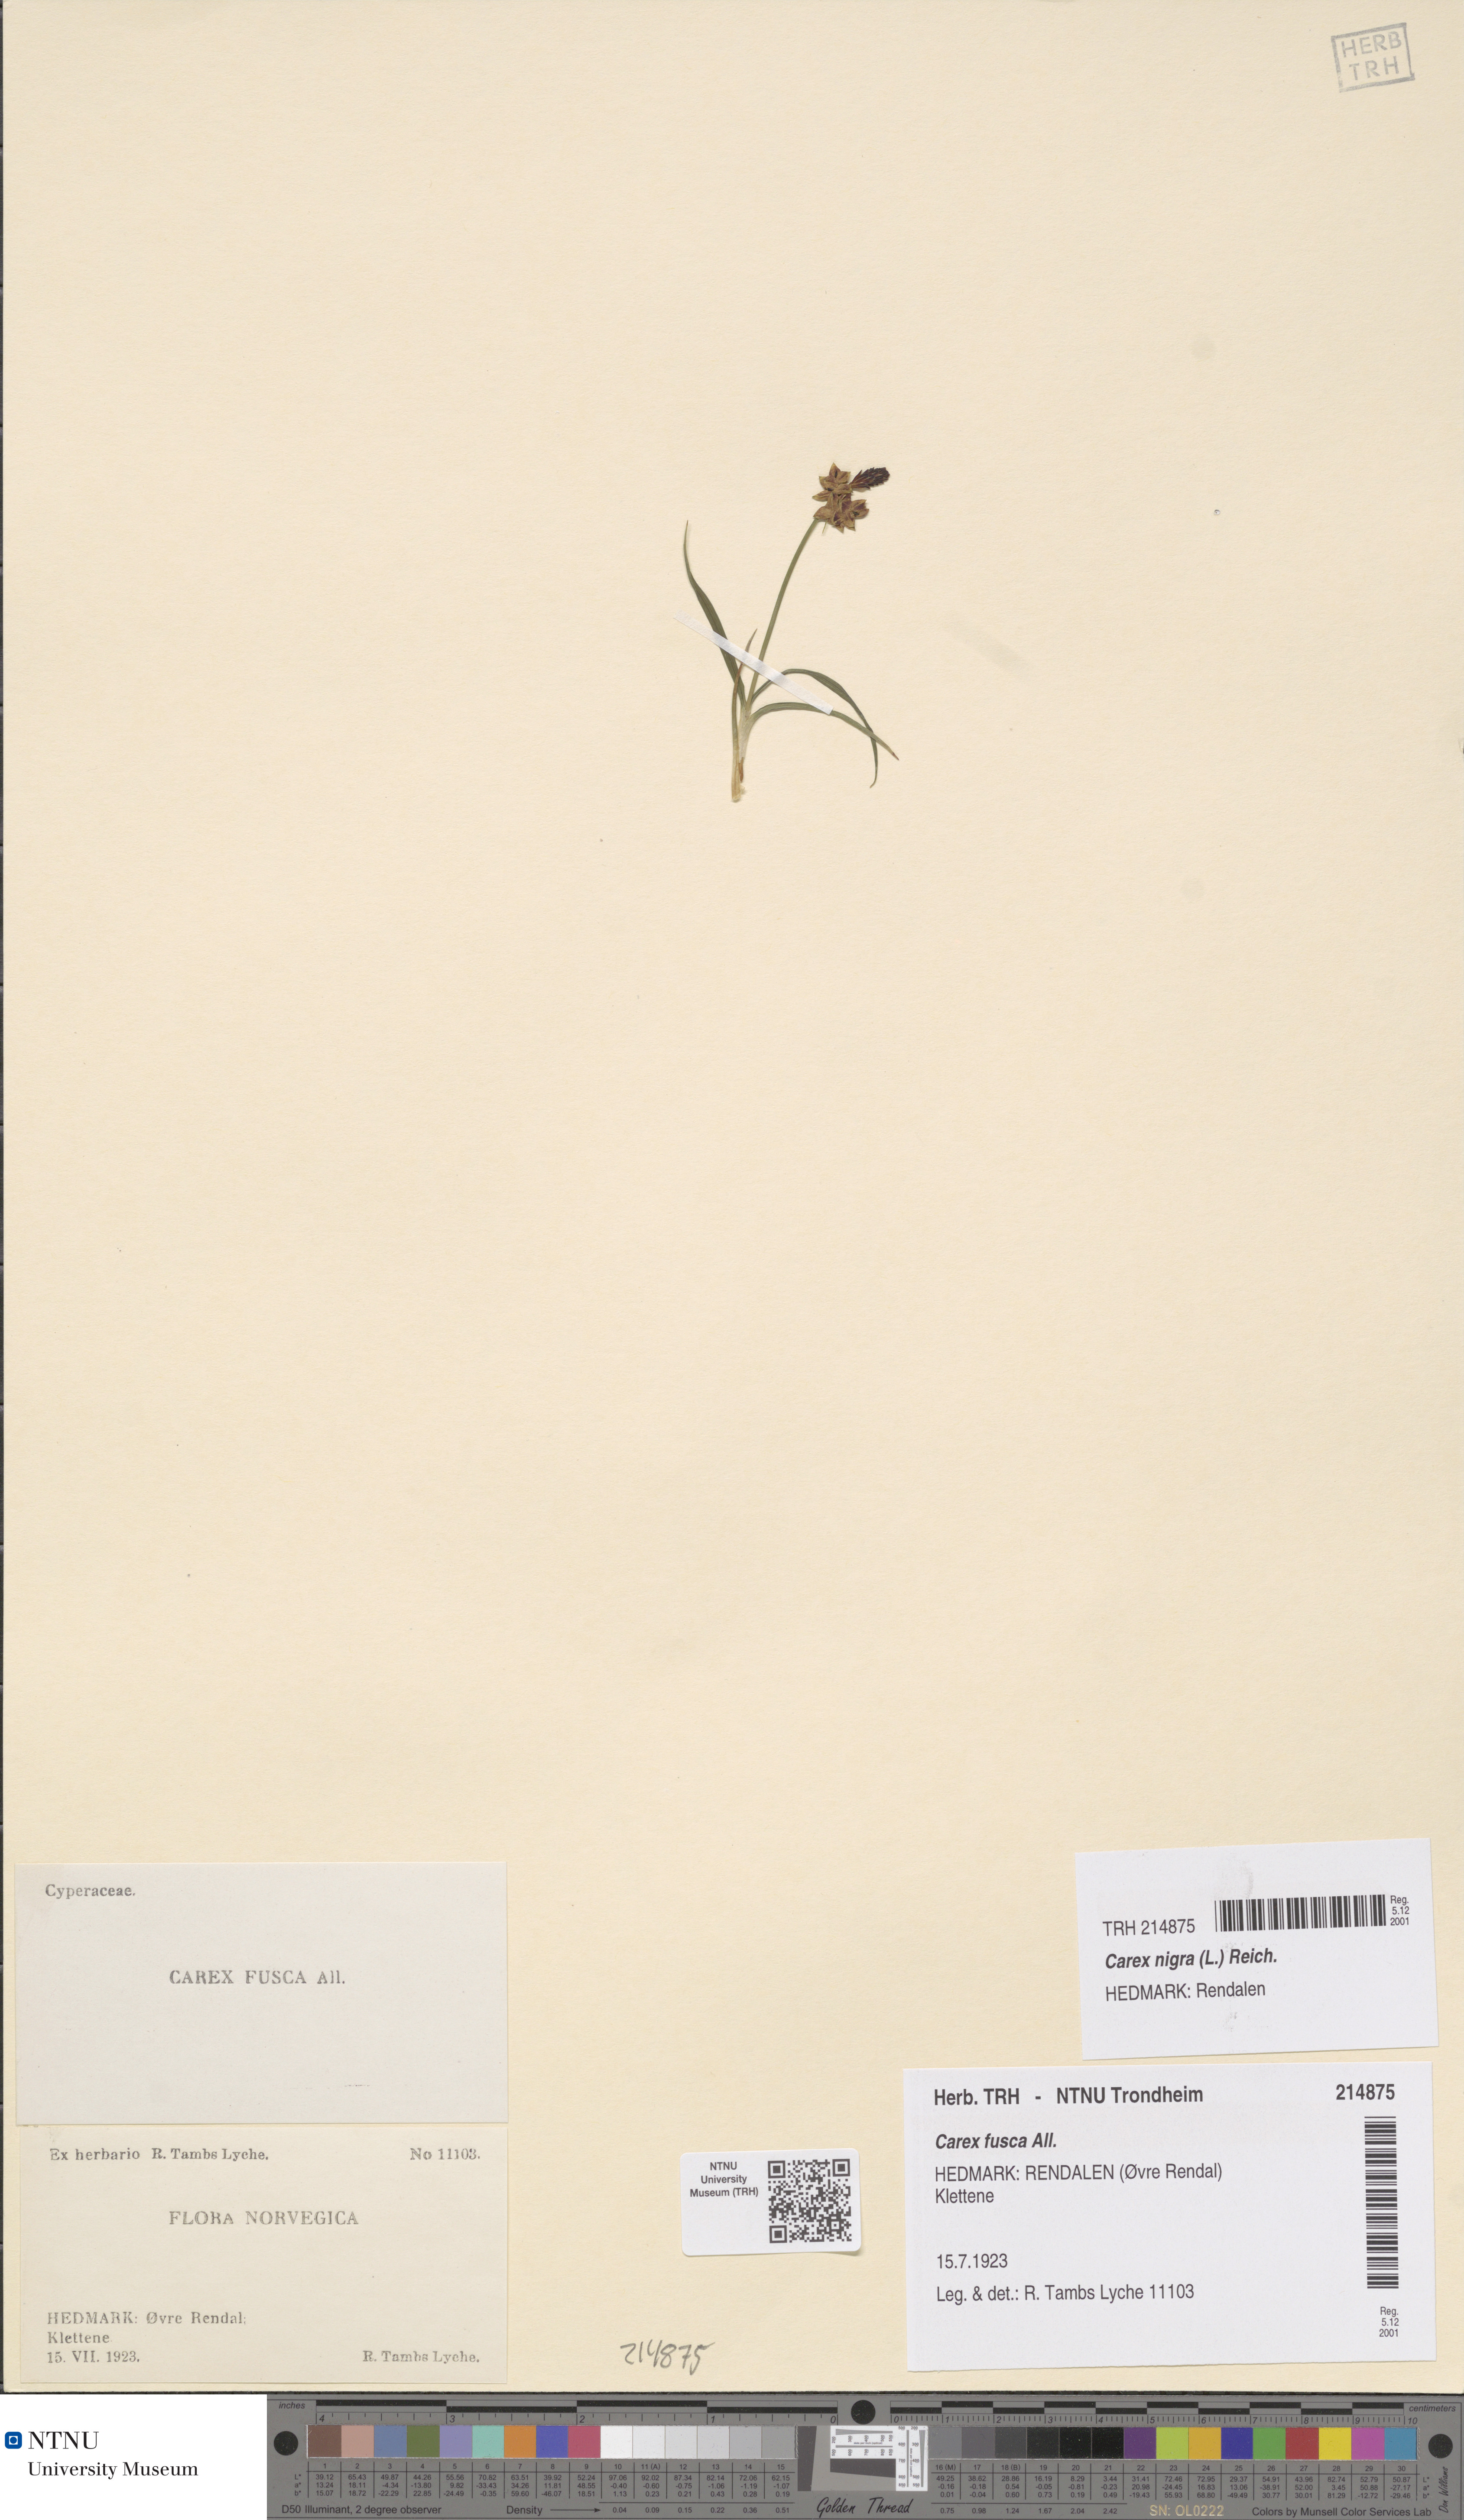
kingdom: Plantae
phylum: Tracheophyta
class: Liliopsida
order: Poales
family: Cyperaceae
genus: Carex
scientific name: Carex nigra
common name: Common sedge
